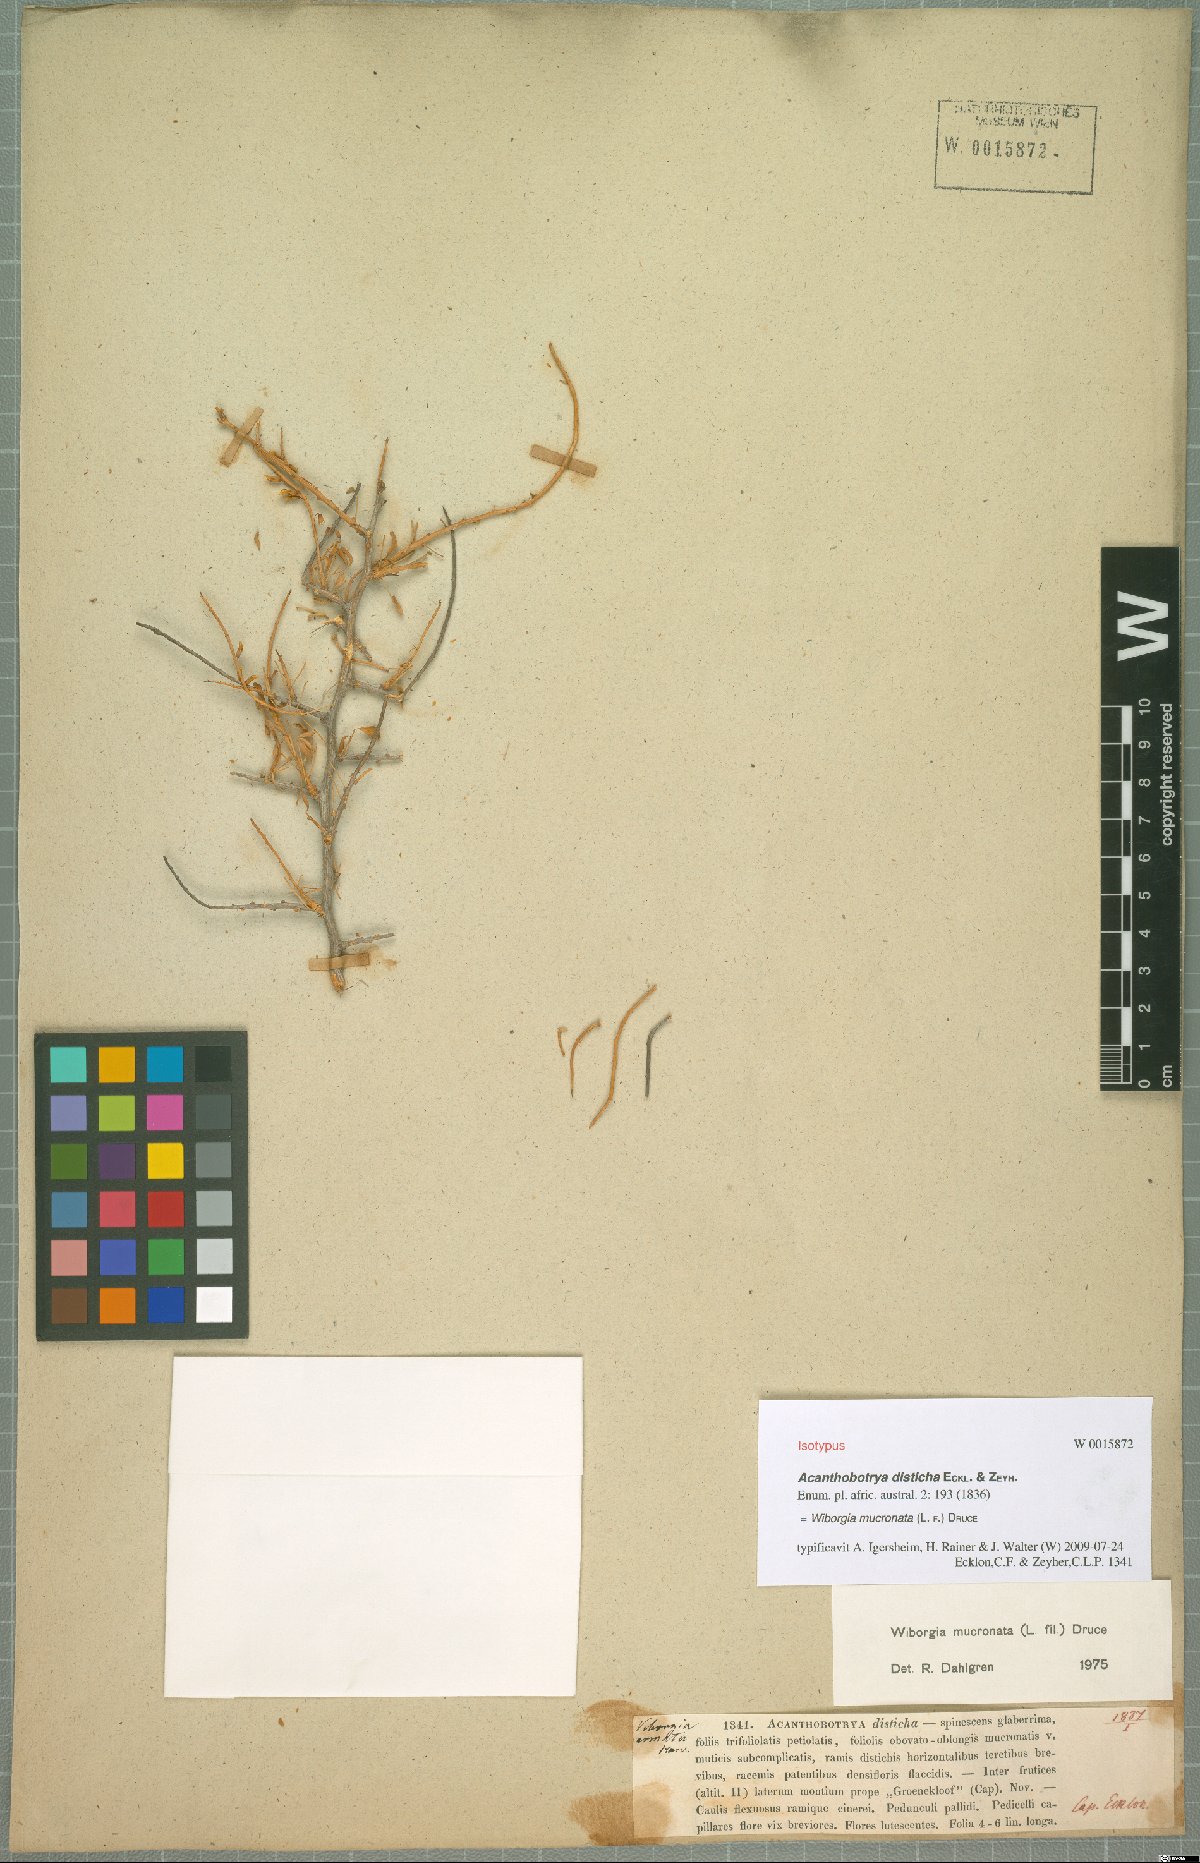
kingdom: Plantae
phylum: Tracheophyta
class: Magnoliopsida
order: Fabales
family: Fabaceae
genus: Wiborgia
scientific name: Wiborgia mucronata
